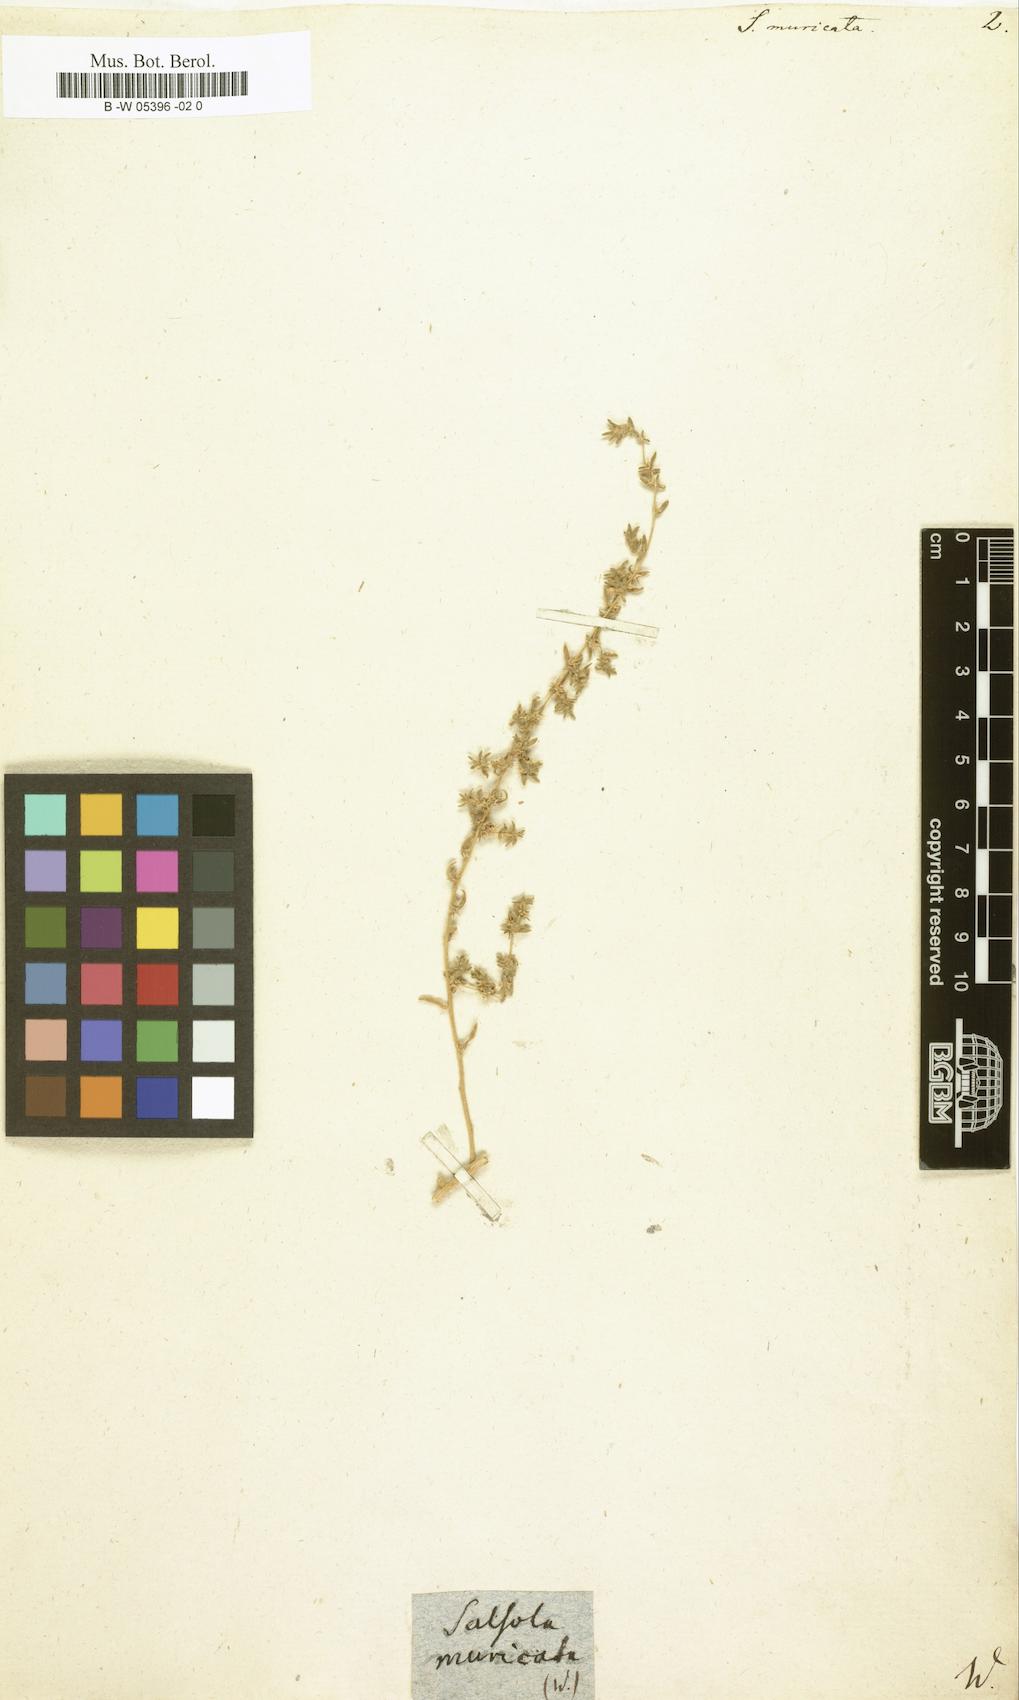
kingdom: Plantae
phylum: Tracheophyta
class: Magnoliopsida
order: Caryophyllales
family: Amaranthaceae
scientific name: Amaranthaceae
